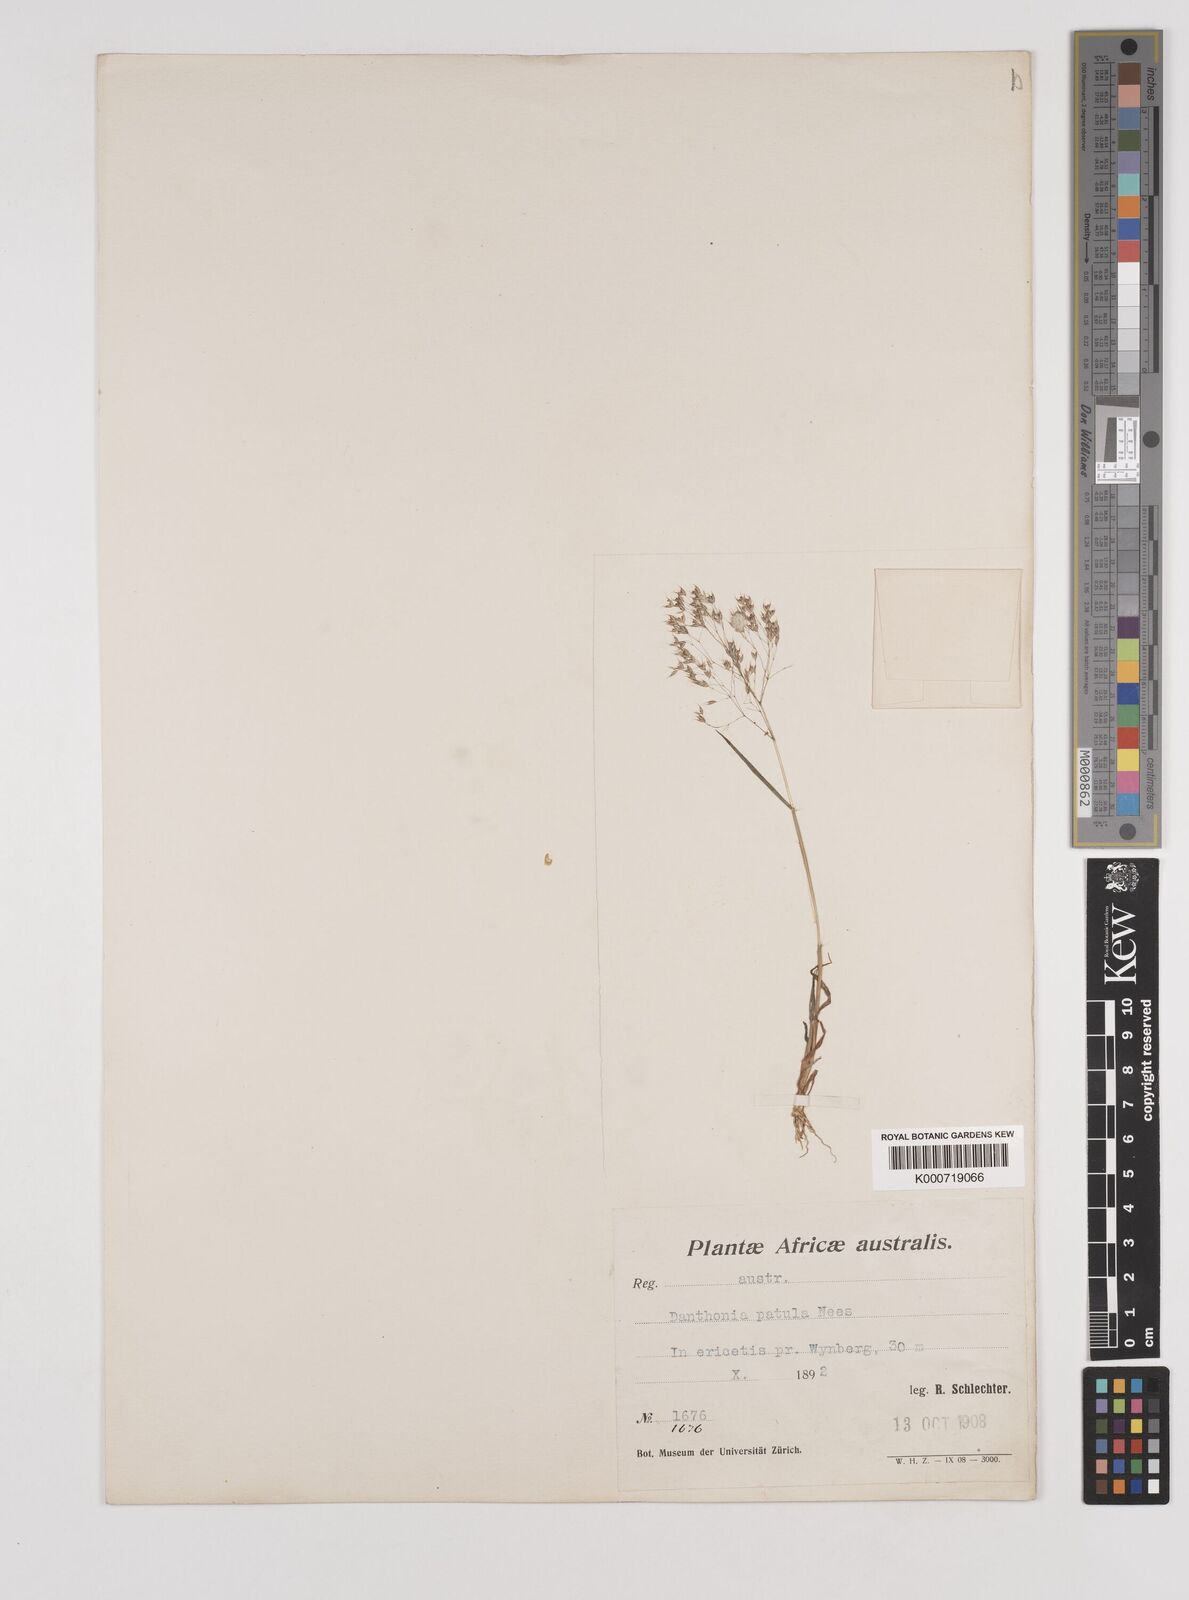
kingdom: Plantae
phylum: Tracheophyta
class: Liliopsida
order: Poales
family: Poaceae
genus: Pentameris
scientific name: Pentameris patula
